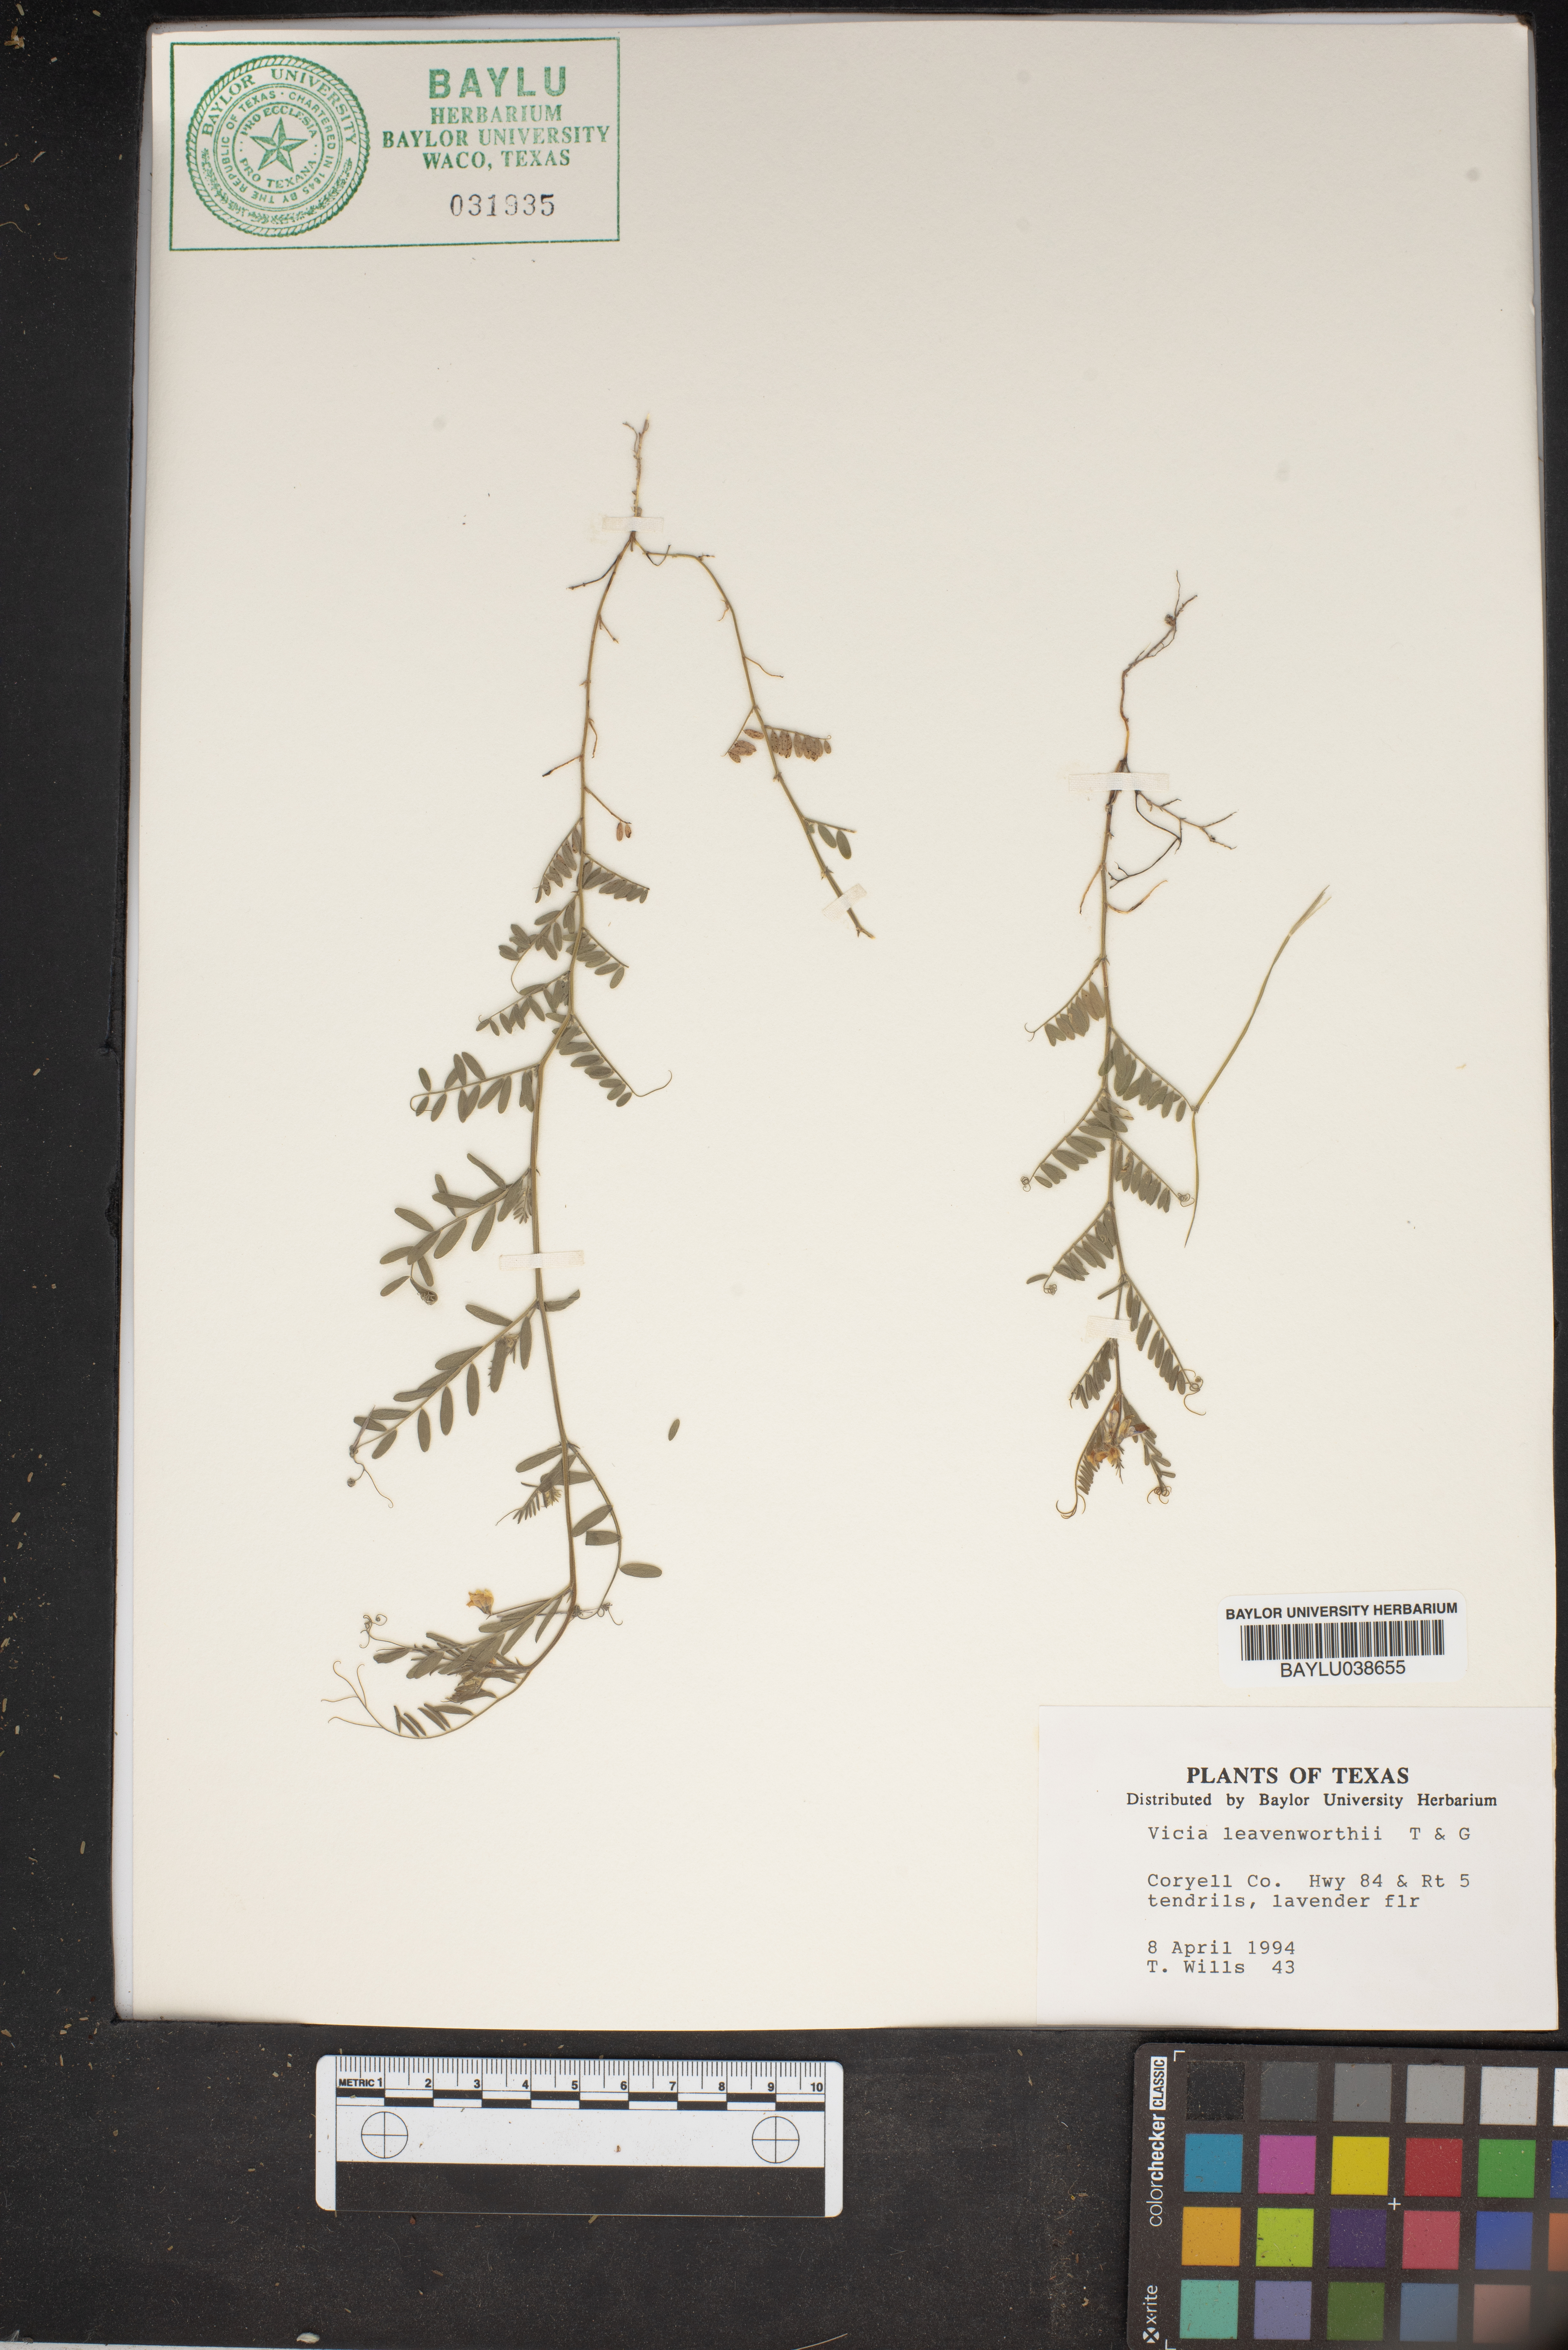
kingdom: Plantae
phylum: Tracheophyta
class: Magnoliopsida
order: Fabales
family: Fabaceae
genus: Vicia
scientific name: Vicia ludoviciana
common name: Louisiana vetch
